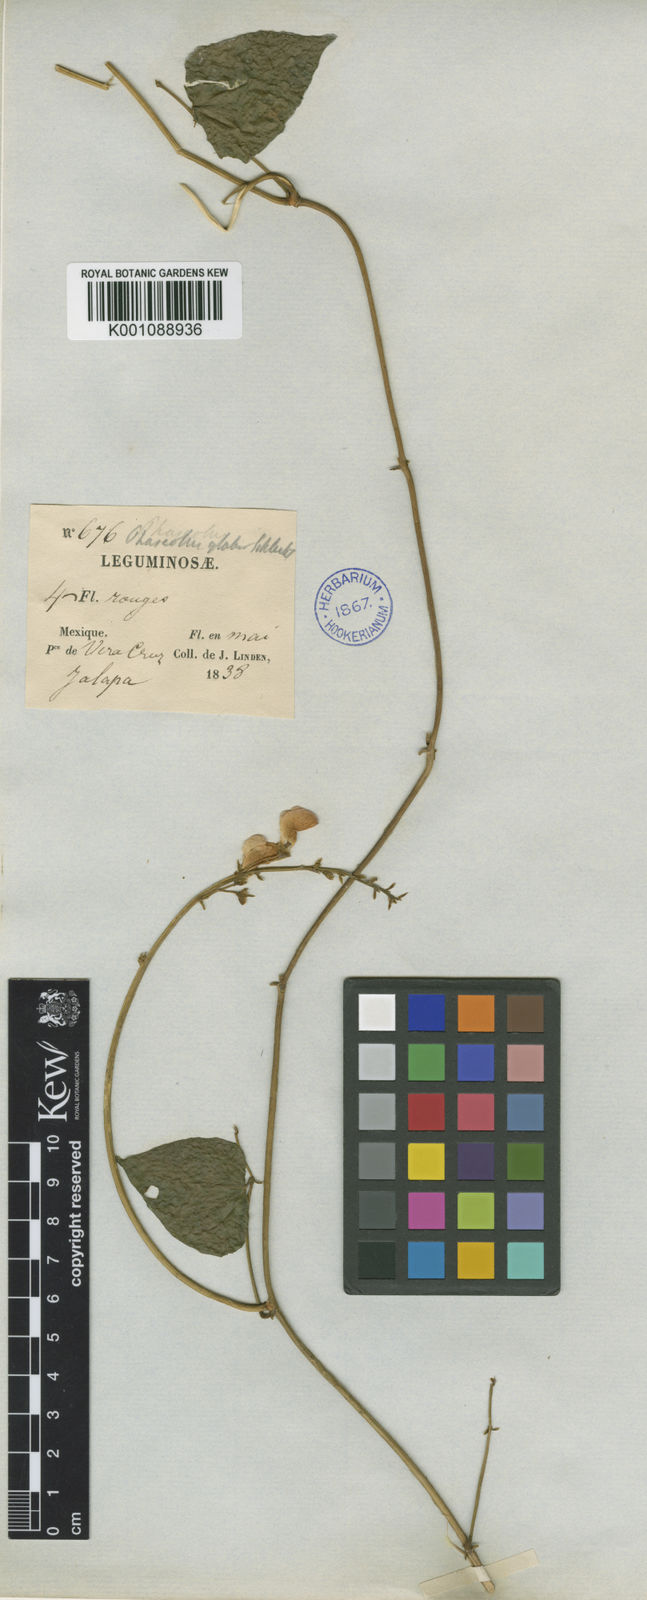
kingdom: Plantae
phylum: Tracheophyta
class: Magnoliopsida
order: Fabales
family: Fabaceae
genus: Phaseolus
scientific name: Phaseolus glabellus
